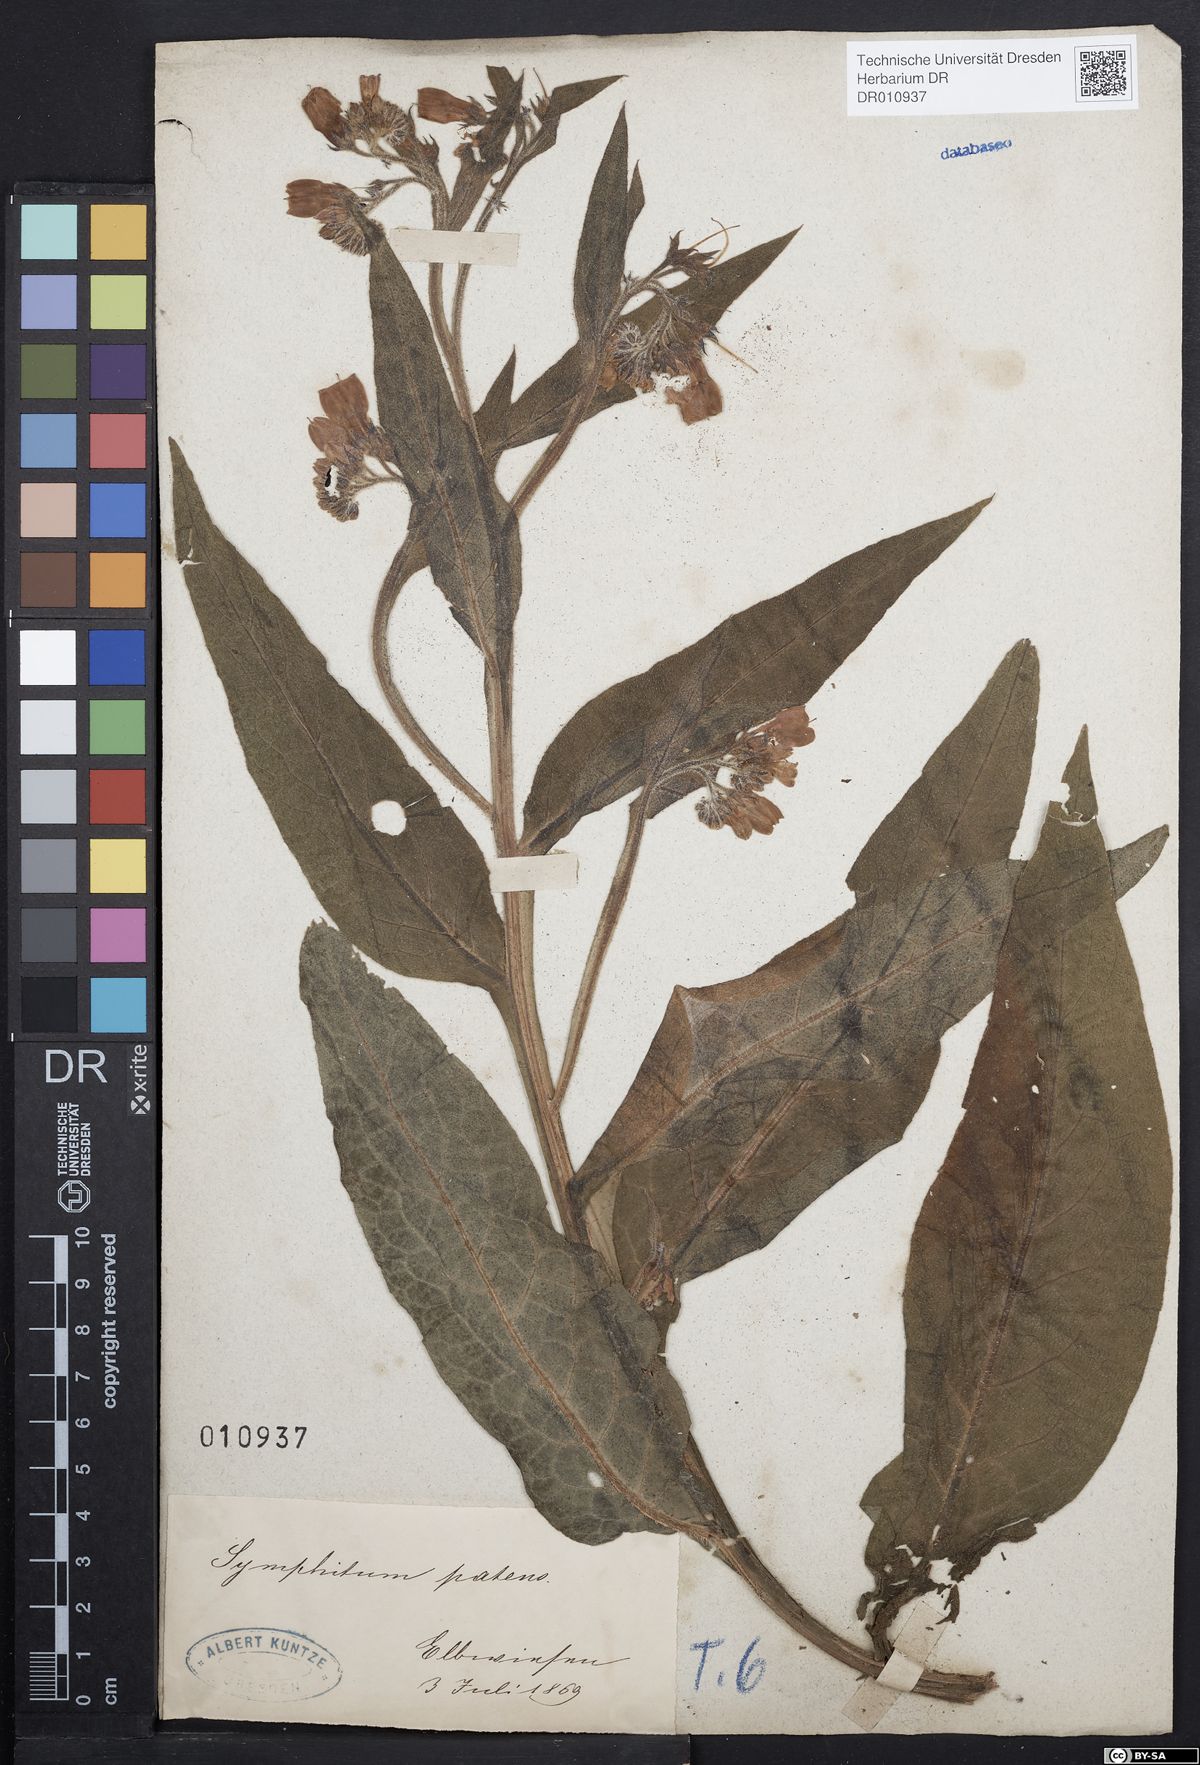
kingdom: Plantae
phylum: Tracheophyta
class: Magnoliopsida
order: Boraginales
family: Boraginaceae
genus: Symphytum
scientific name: Symphytum officinale
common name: Common comfrey
